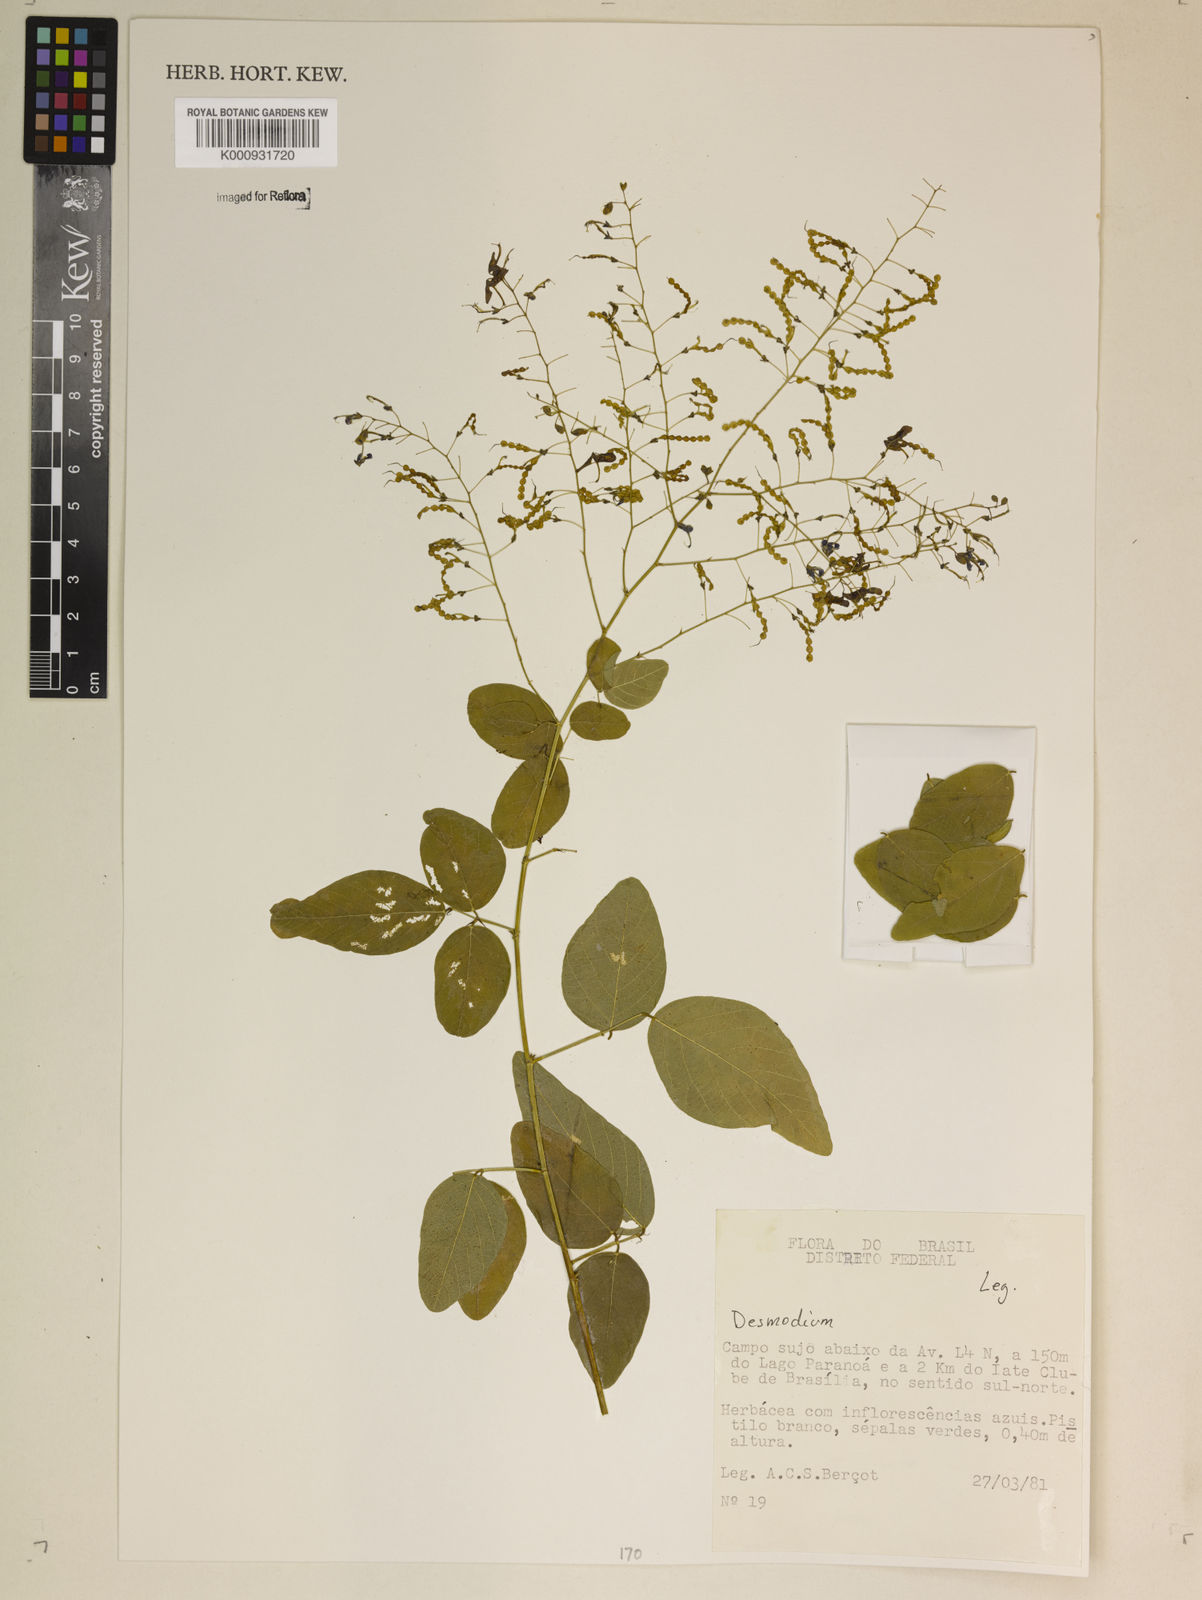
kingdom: Plantae
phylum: Tracheophyta
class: Magnoliopsida
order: Fabales
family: Fabaceae
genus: Desmodium
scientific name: Desmodium
